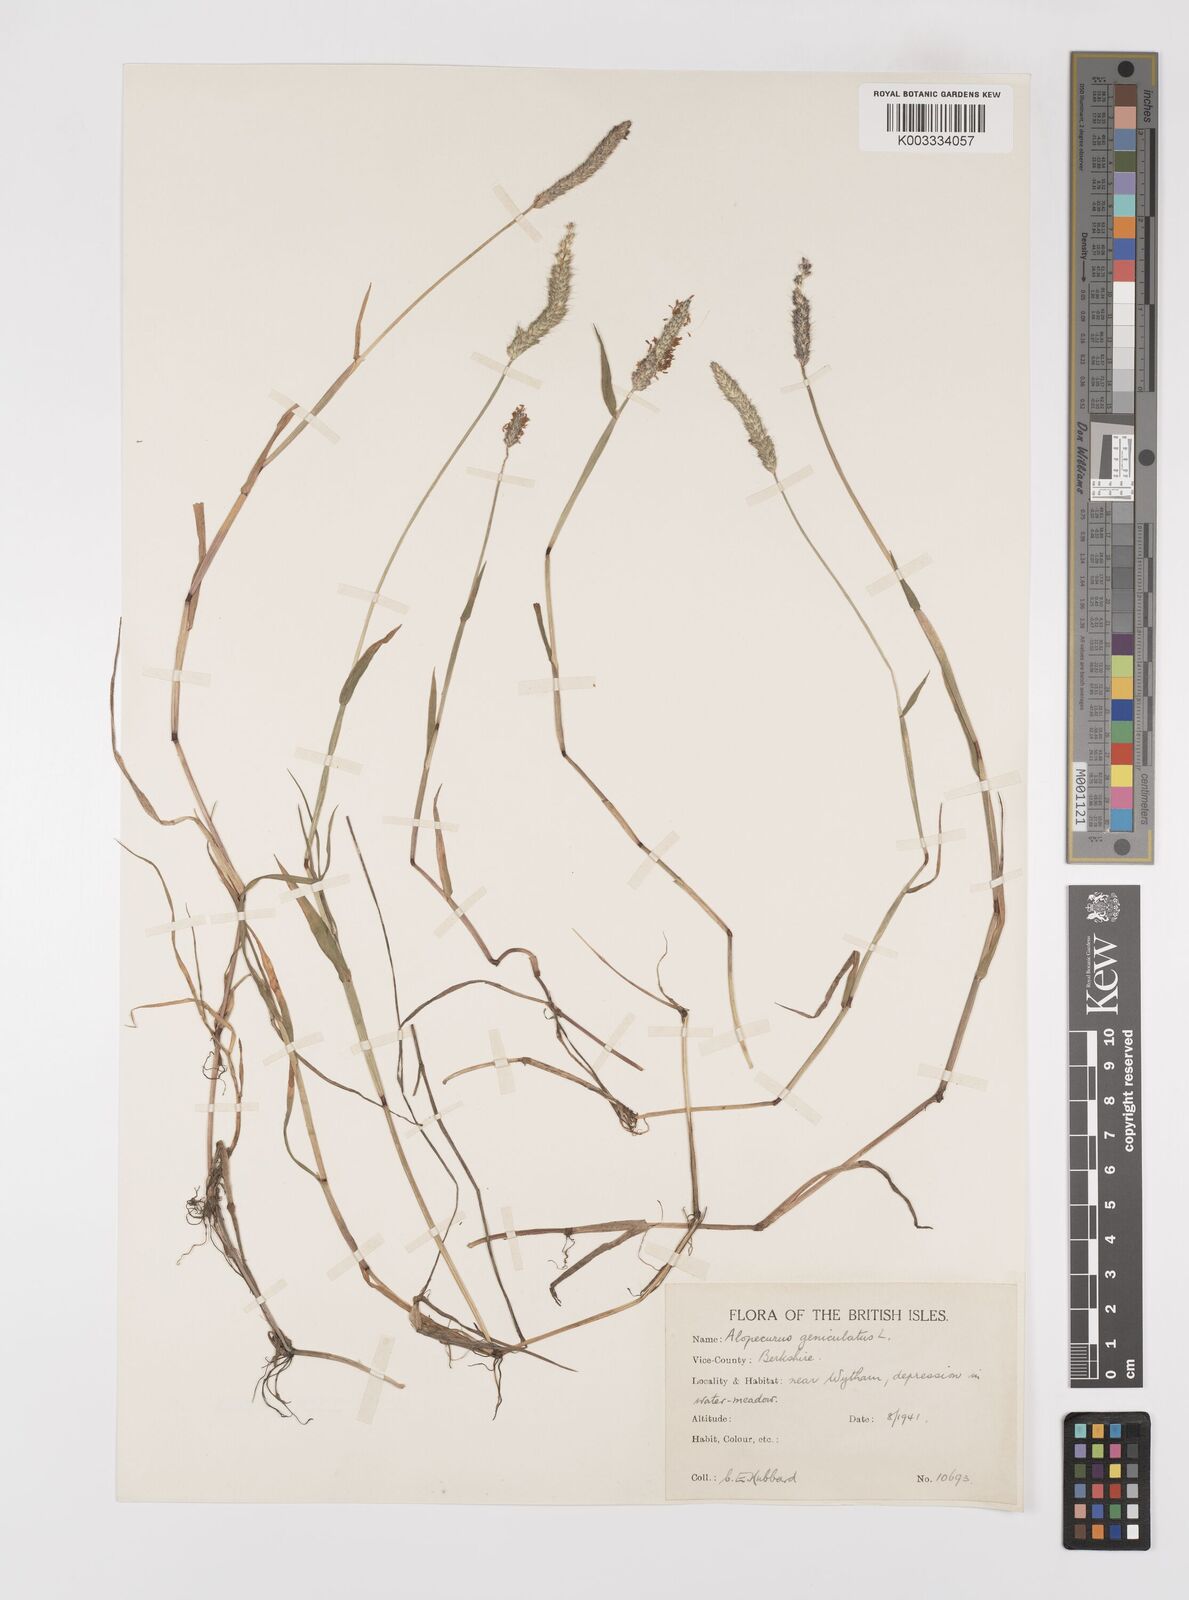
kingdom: Plantae
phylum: Tracheophyta
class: Liliopsida
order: Poales
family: Poaceae
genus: Alopecurus
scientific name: Alopecurus geniculatus
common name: Water foxtail
